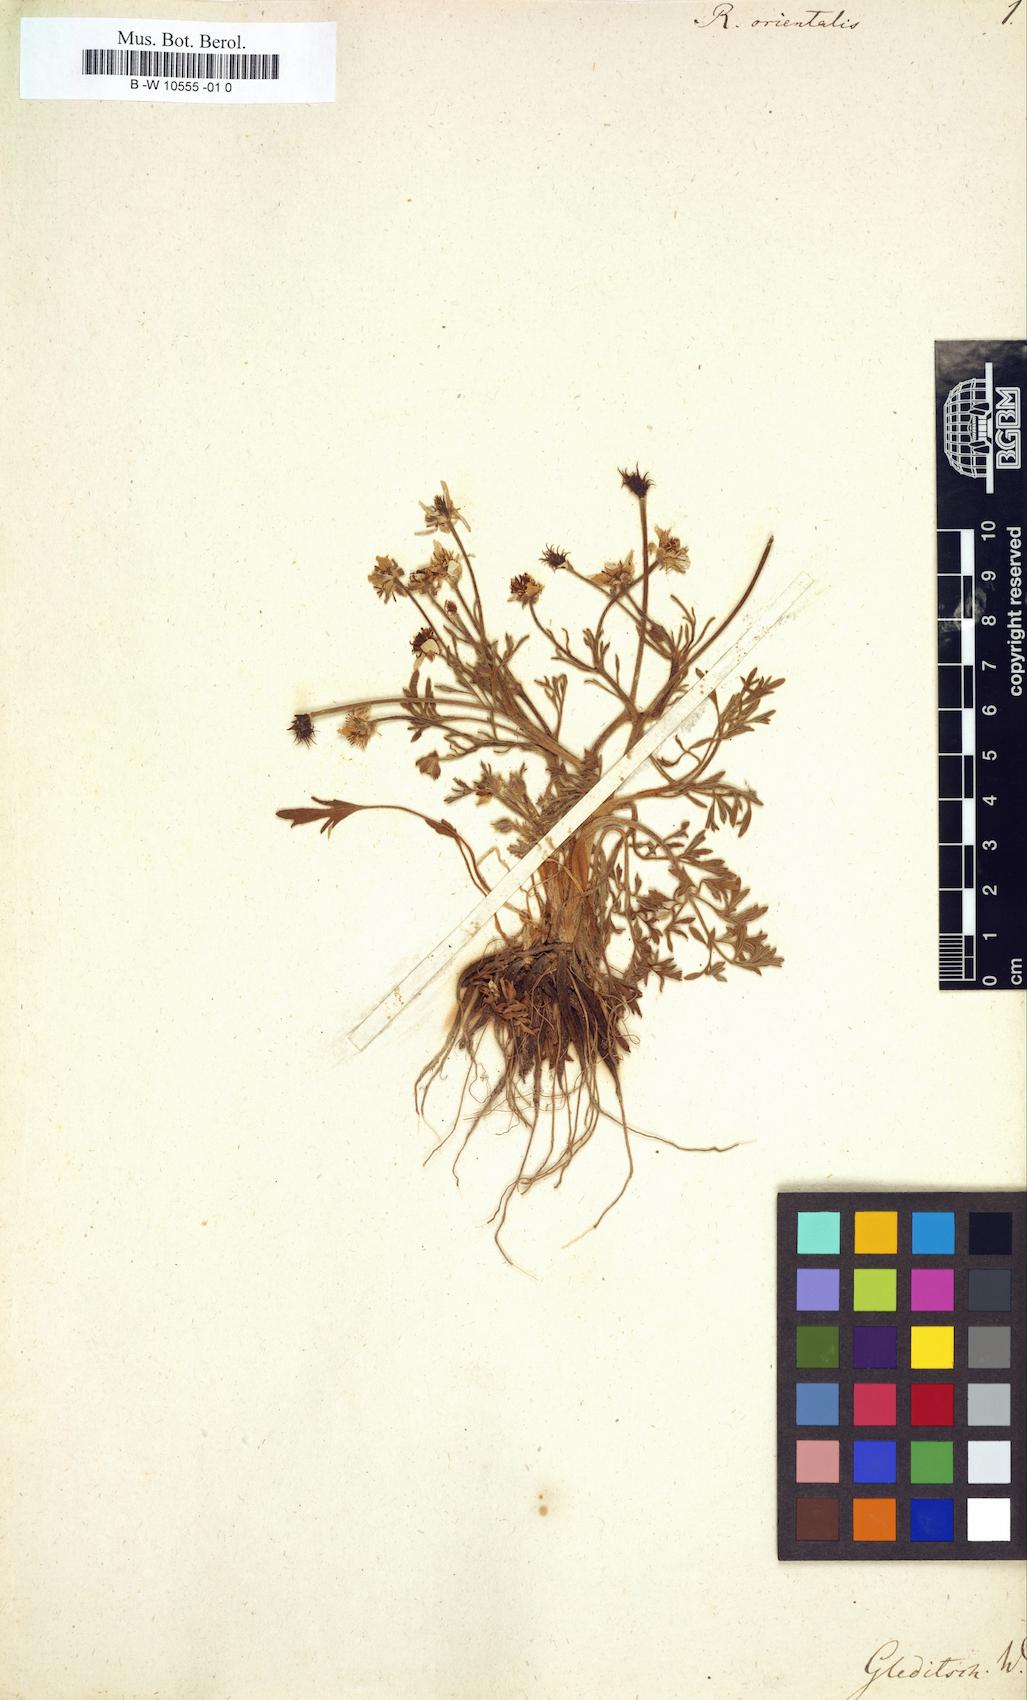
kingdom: Plantae
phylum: Tracheophyta
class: Magnoliopsida
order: Ranunculales
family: Ranunculaceae
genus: Ranunculus
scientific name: Ranunculus
